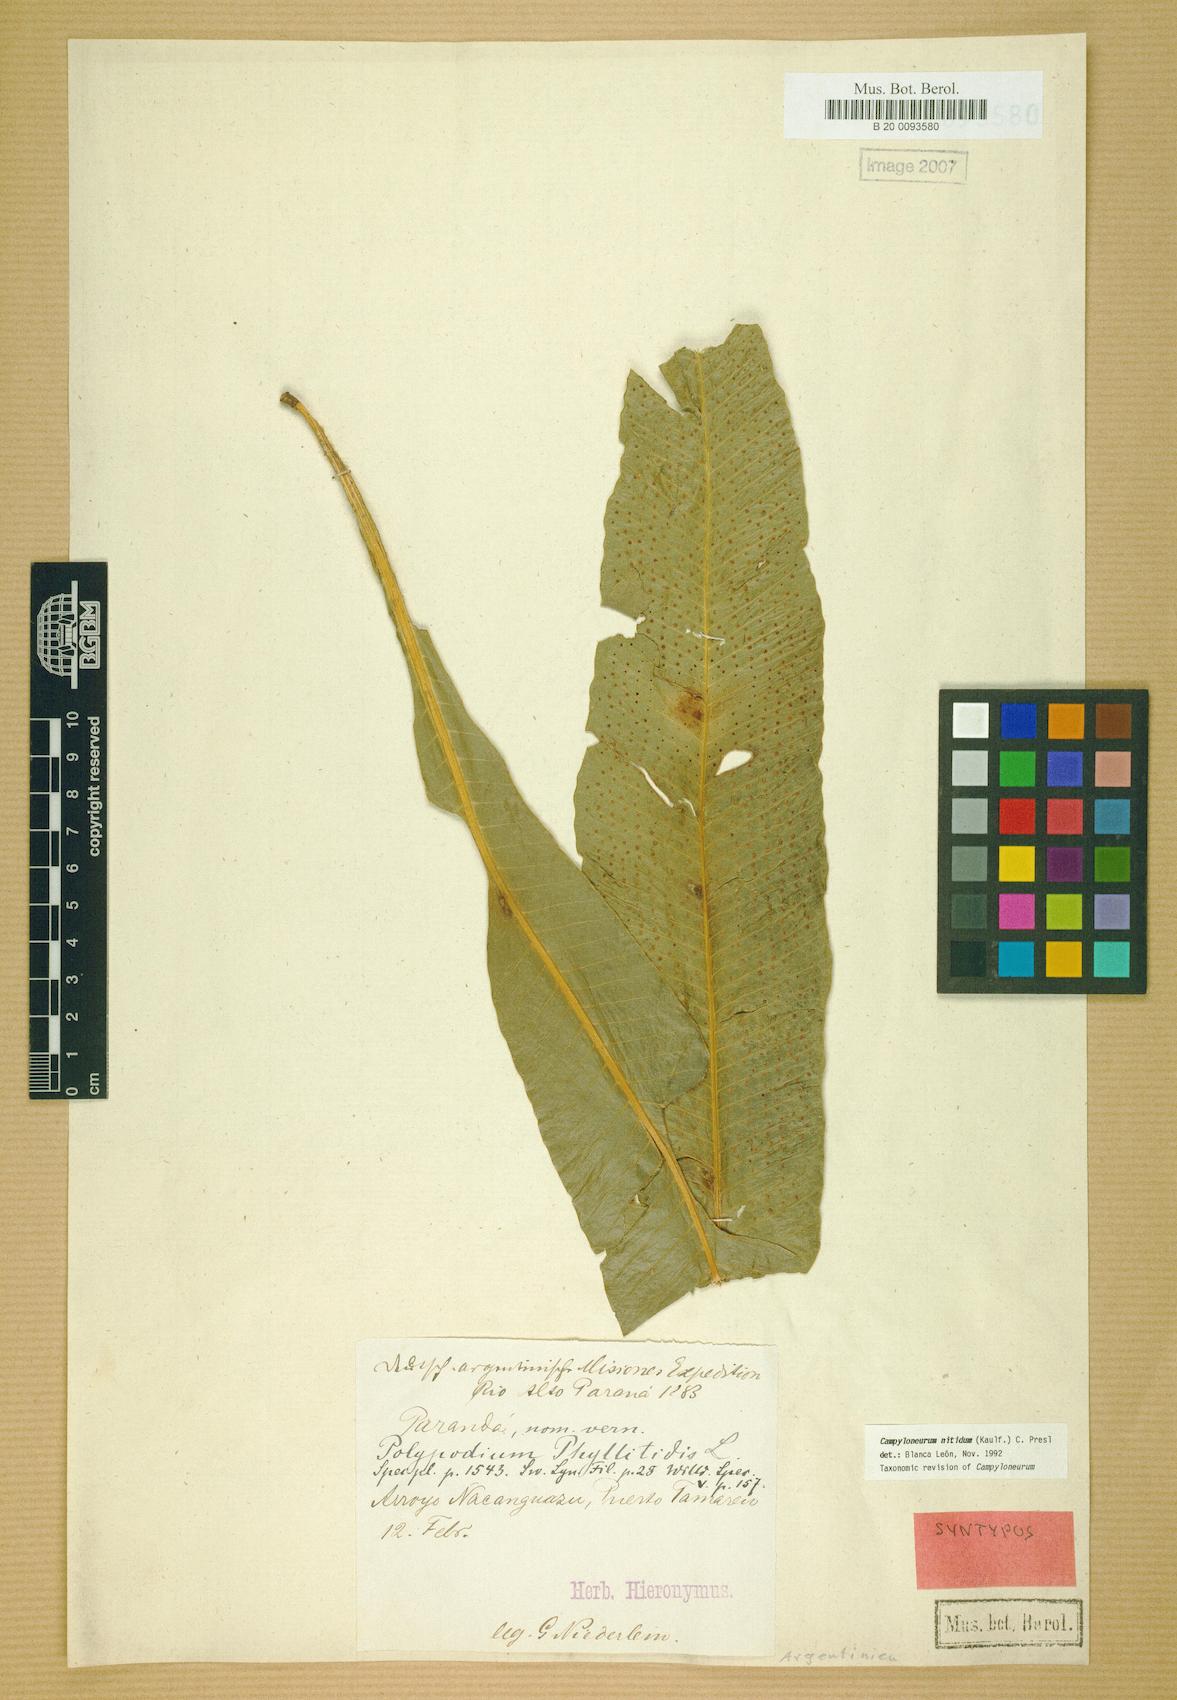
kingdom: Plantae
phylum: Tracheophyta
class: Polypodiopsida
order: Polypodiales
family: Polypodiaceae
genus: Campyloneurum
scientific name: Campyloneurum nitidum
